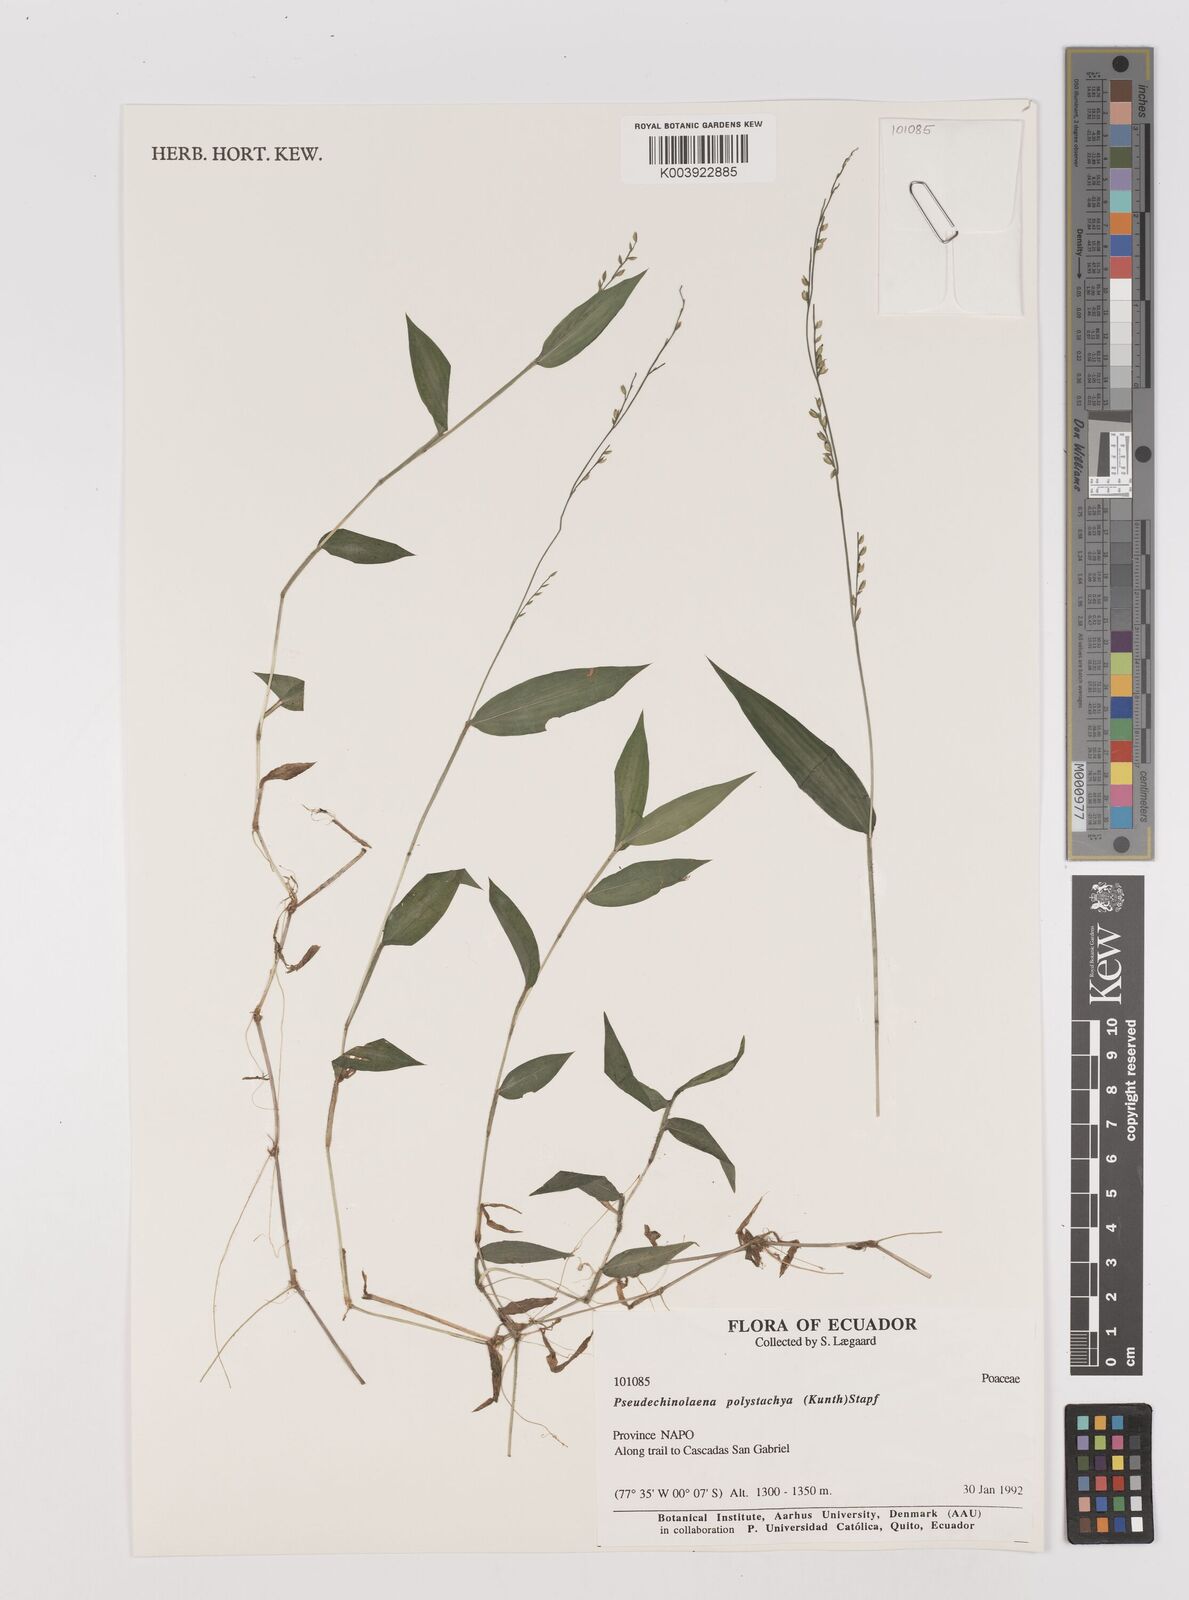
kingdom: Plantae
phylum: Tracheophyta
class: Liliopsida
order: Poales
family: Poaceae
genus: Pseudechinolaena
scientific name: Pseudechinolaena polystachya
